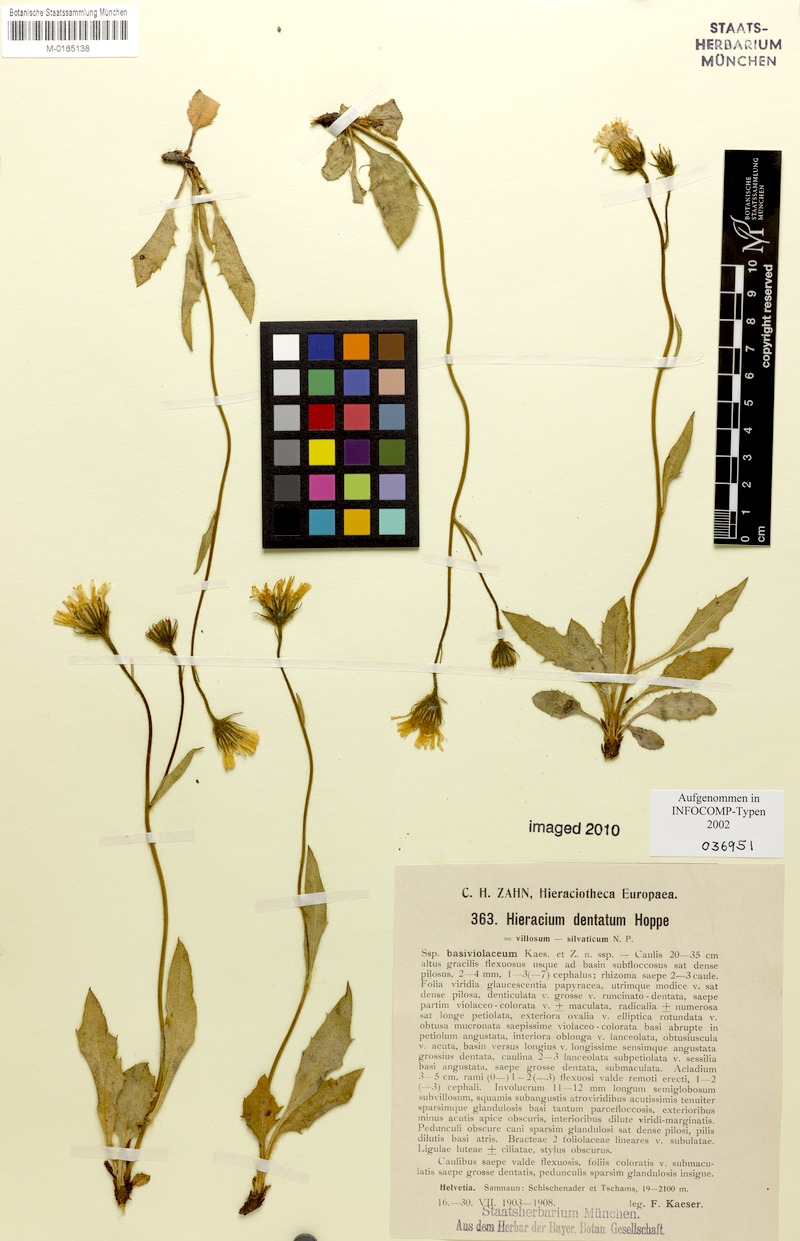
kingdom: Plantae
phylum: Tracheophyta
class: Magnoliopsida
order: Asterales
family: Asteraceae
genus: Hieracium
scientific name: Hieracium dentatum
